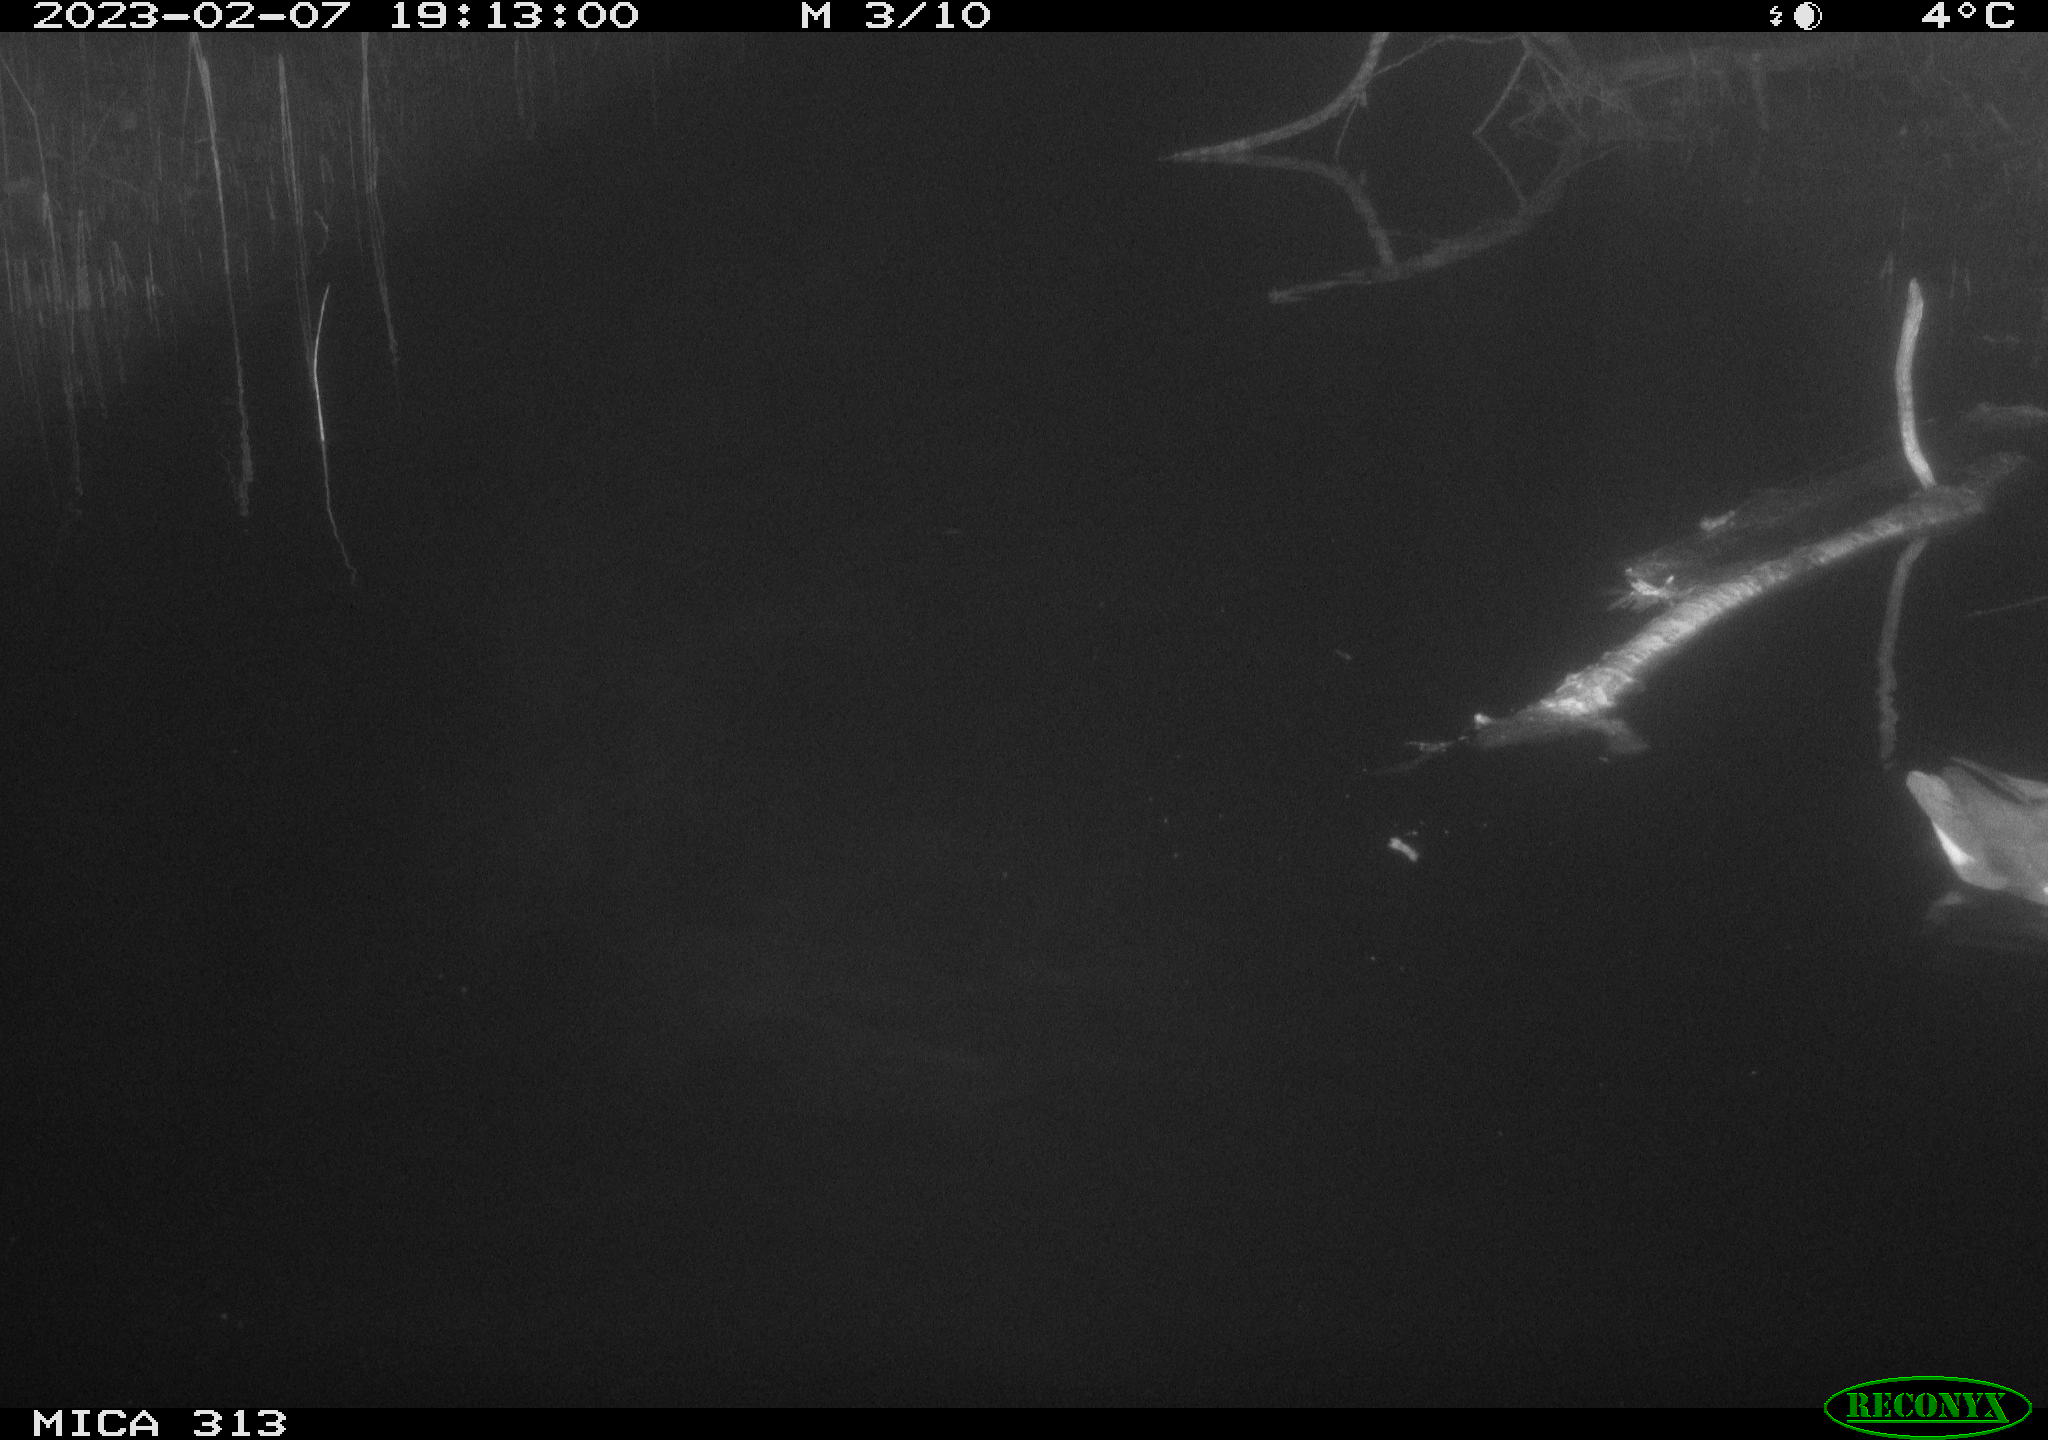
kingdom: Animalia
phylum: Chordata
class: Aves
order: Gruiformes
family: Rallidae
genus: Gallinula
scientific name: Gallinula chloropus
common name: Common moorhen
